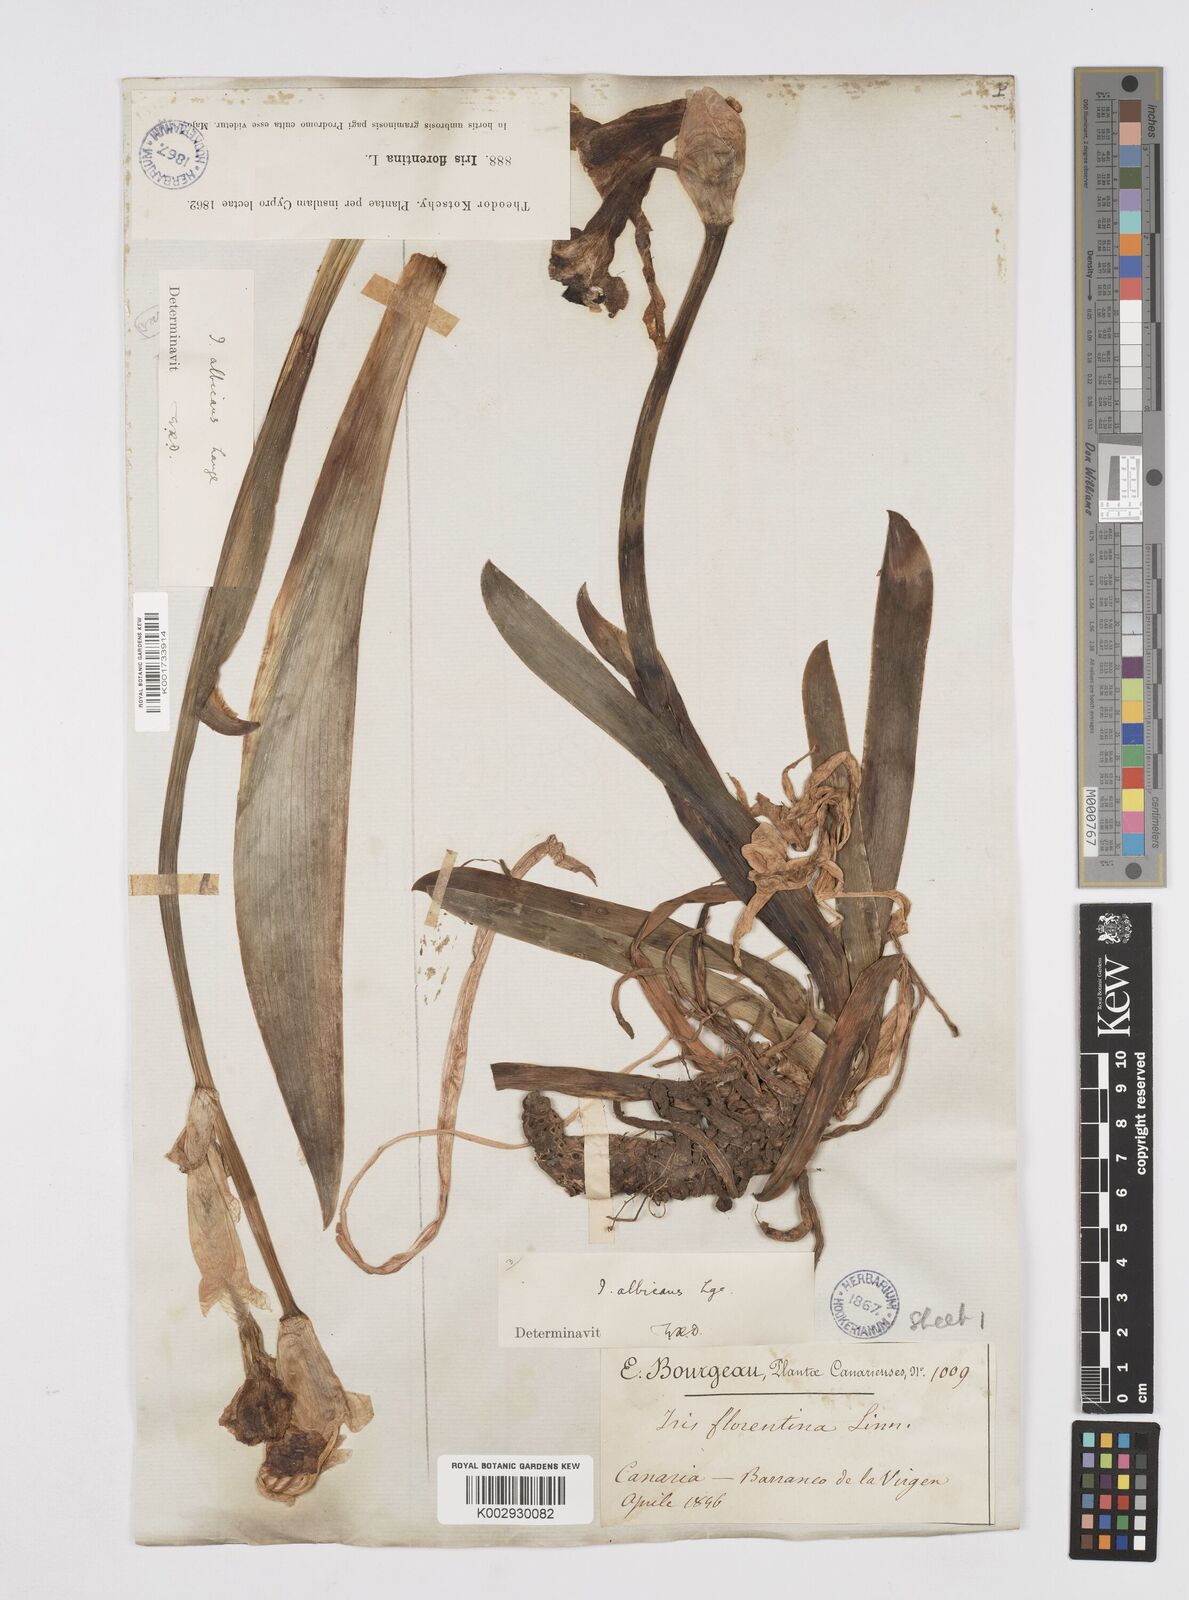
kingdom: Plantae
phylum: Tracheophyta
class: Liliopsida
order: Asparagales
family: Iridaceae
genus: Iris
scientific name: Iris florentina
